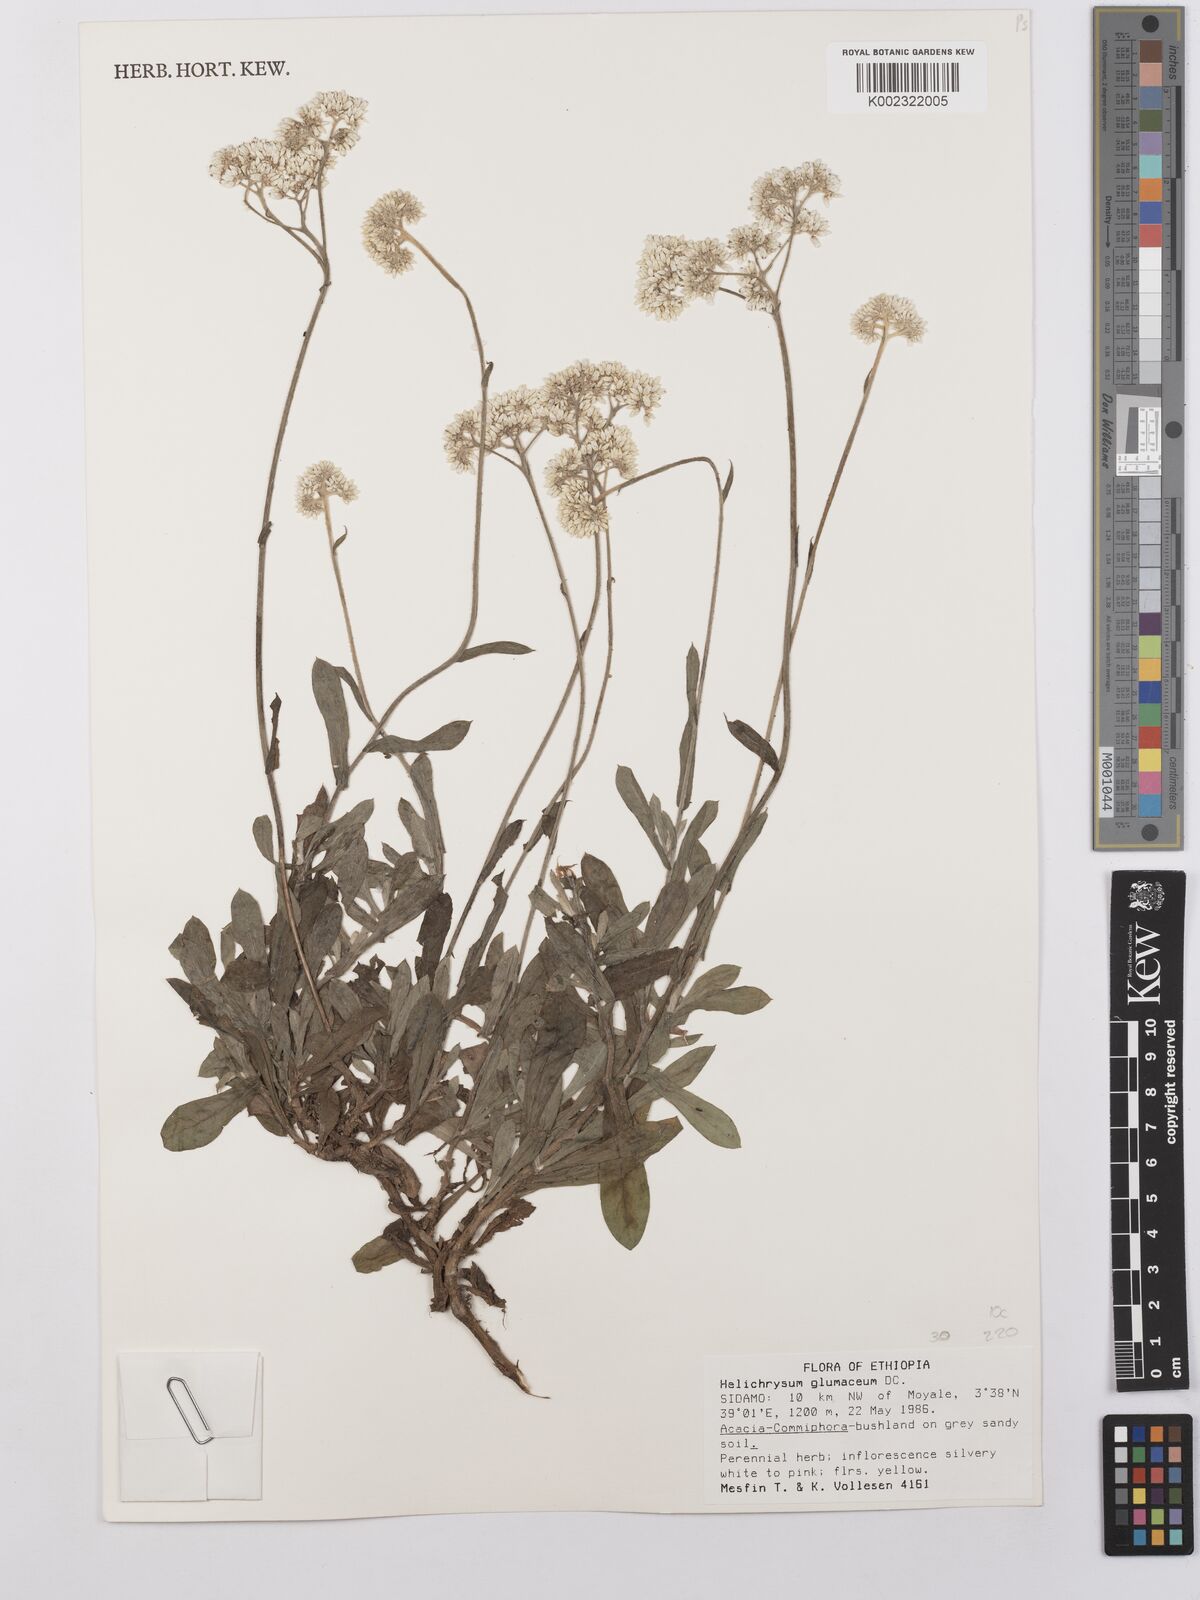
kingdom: Plantae
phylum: Tracheophyta
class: Magnoliopsida
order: Asterales
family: Asteraceae
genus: Helichrysum
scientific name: Helichrysum glumaceum
